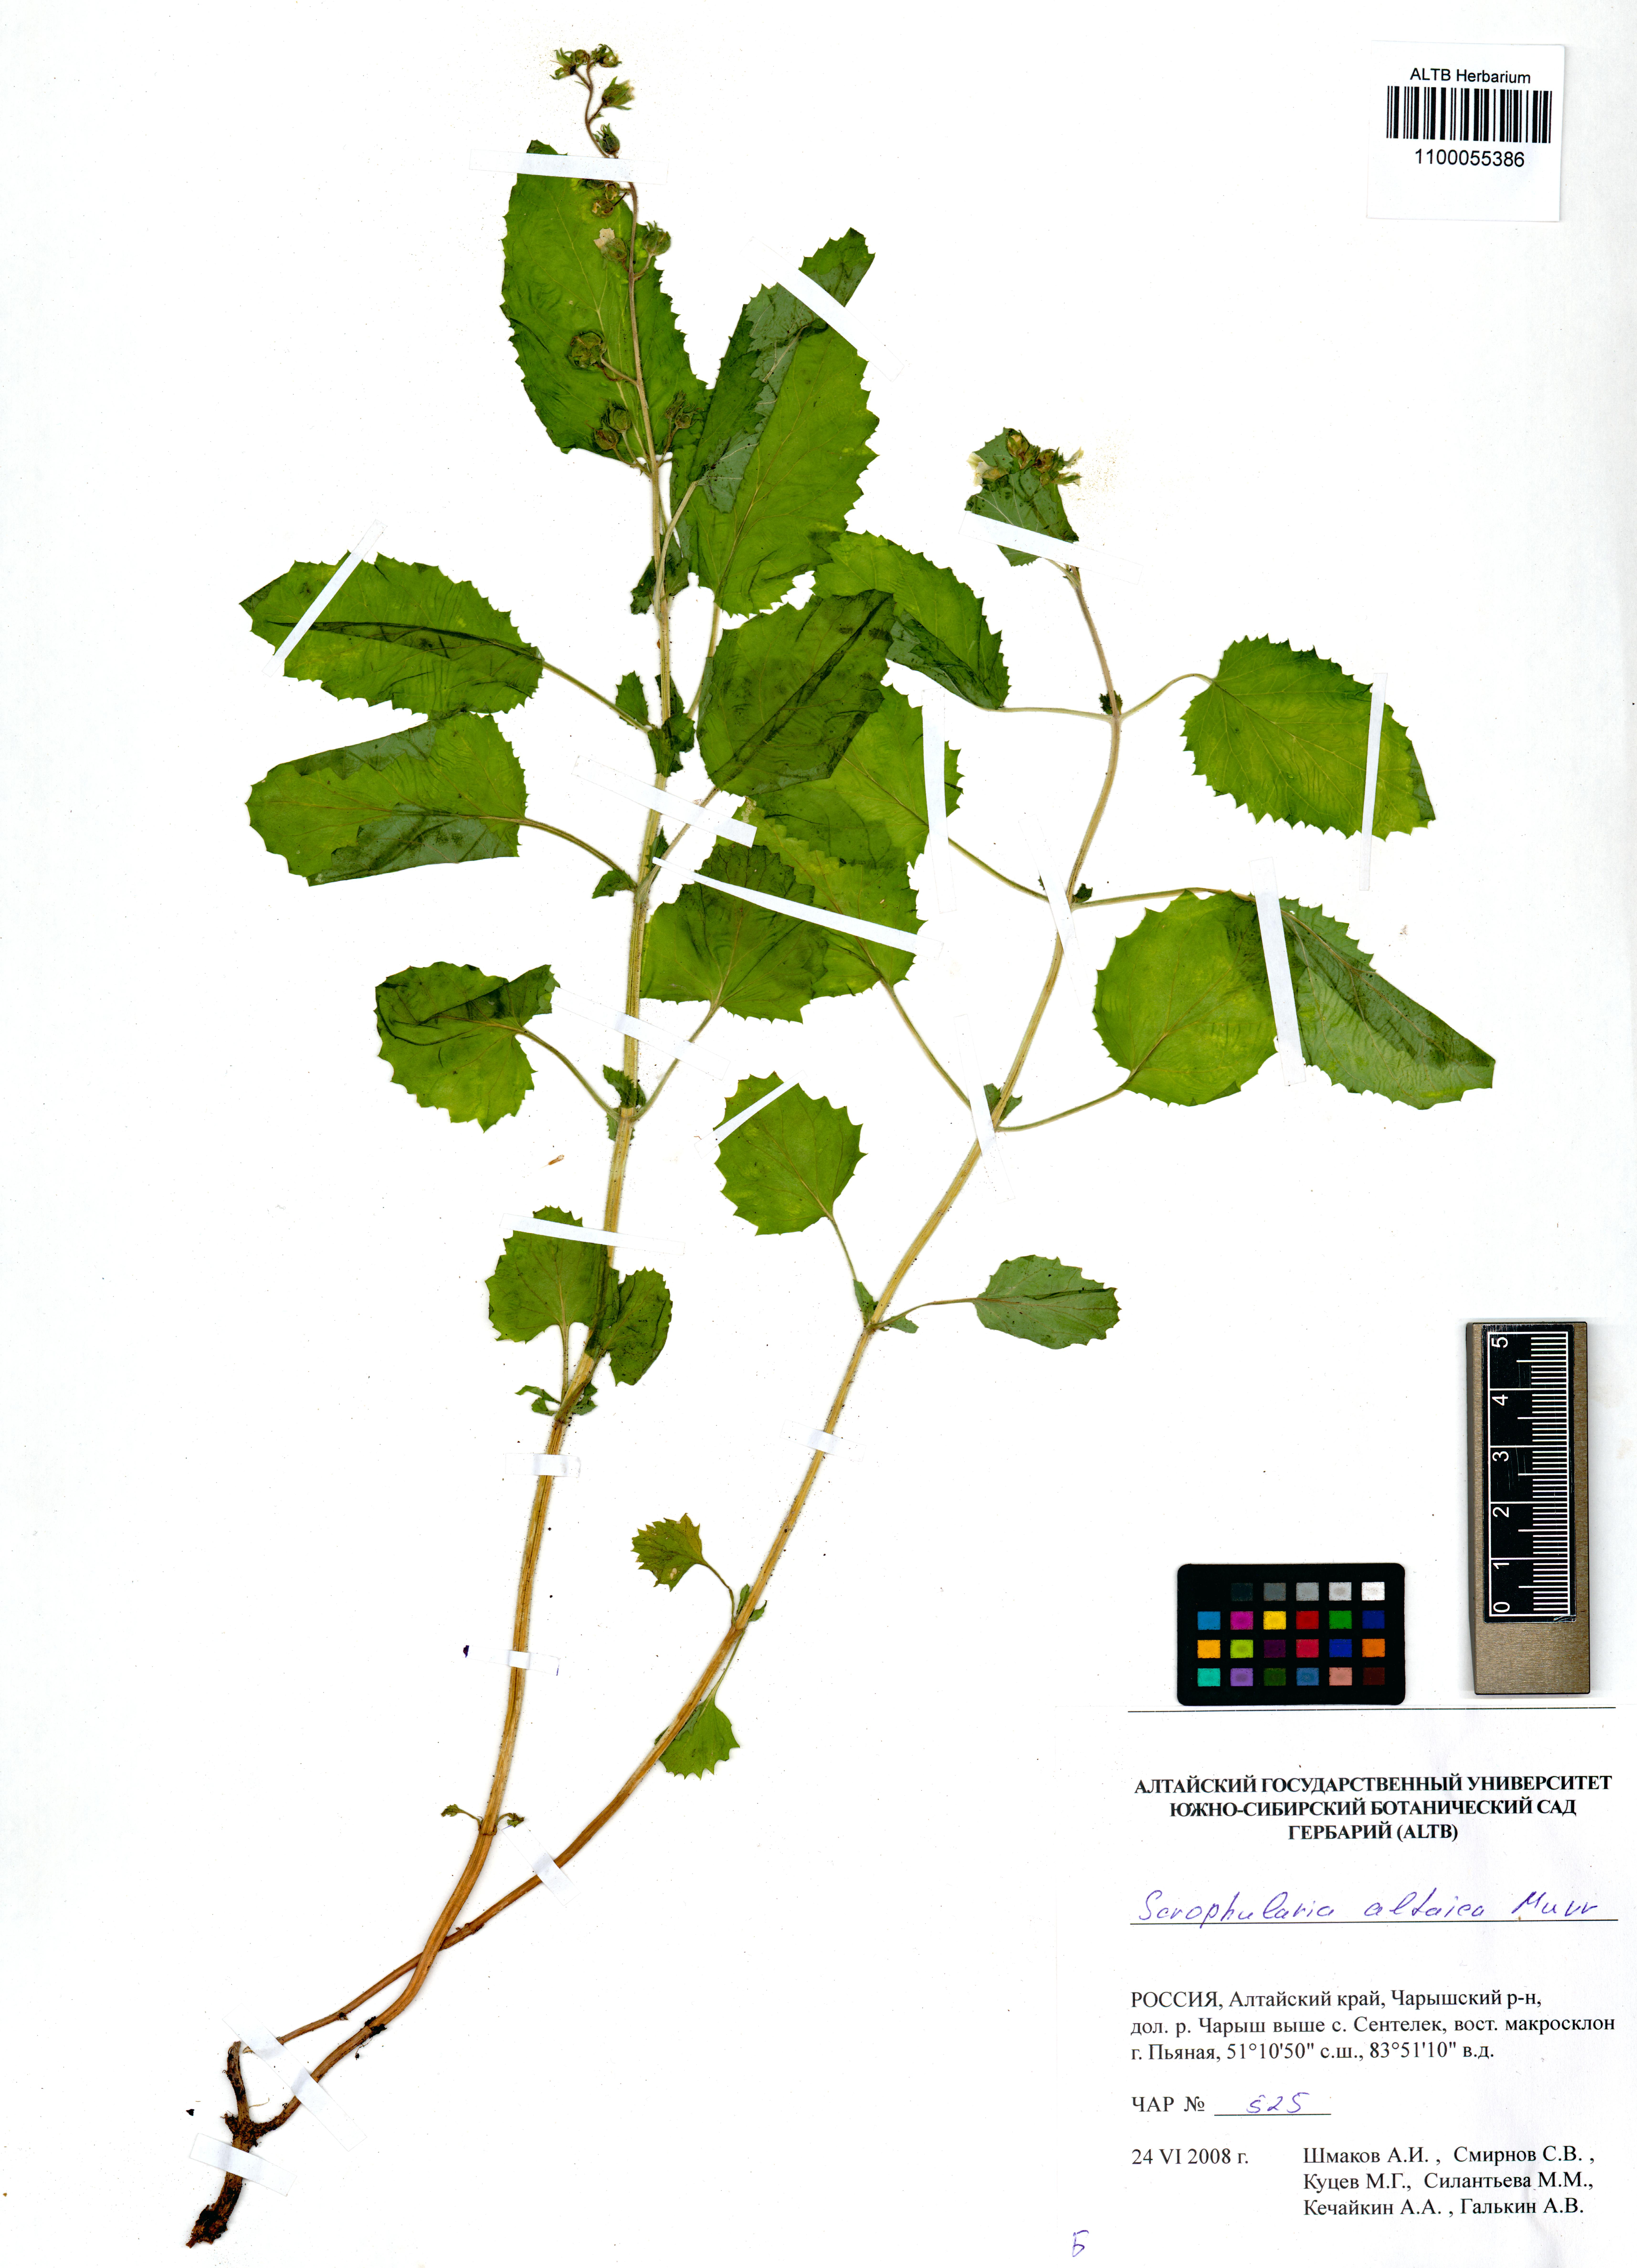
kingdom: Plantae
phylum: Tracheophyta
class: Magnoliopsida
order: Lamiales
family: Scrophulariaceae
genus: Scrophularia
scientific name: Scrophularia altaica
